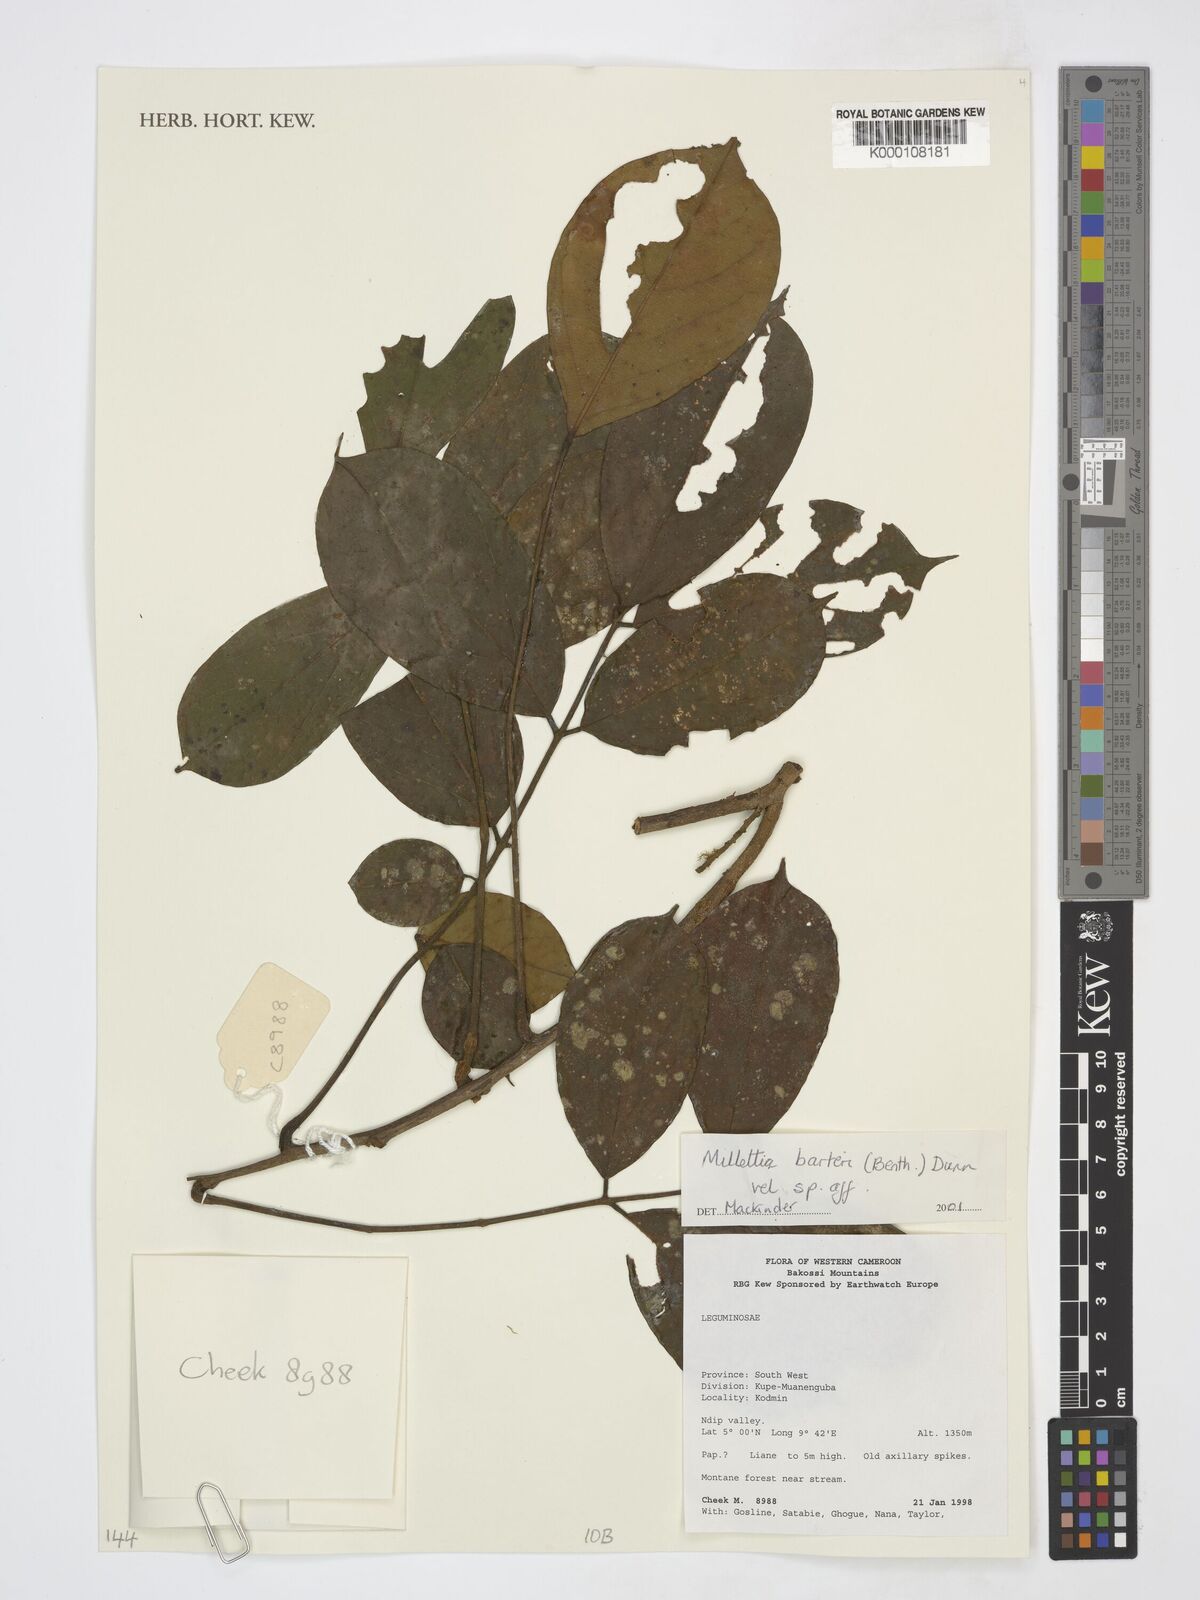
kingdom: Plantae
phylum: Tracheophyta
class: Magnoliopsida
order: Fabales
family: Fabaceae
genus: Millettia
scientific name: Millettia
